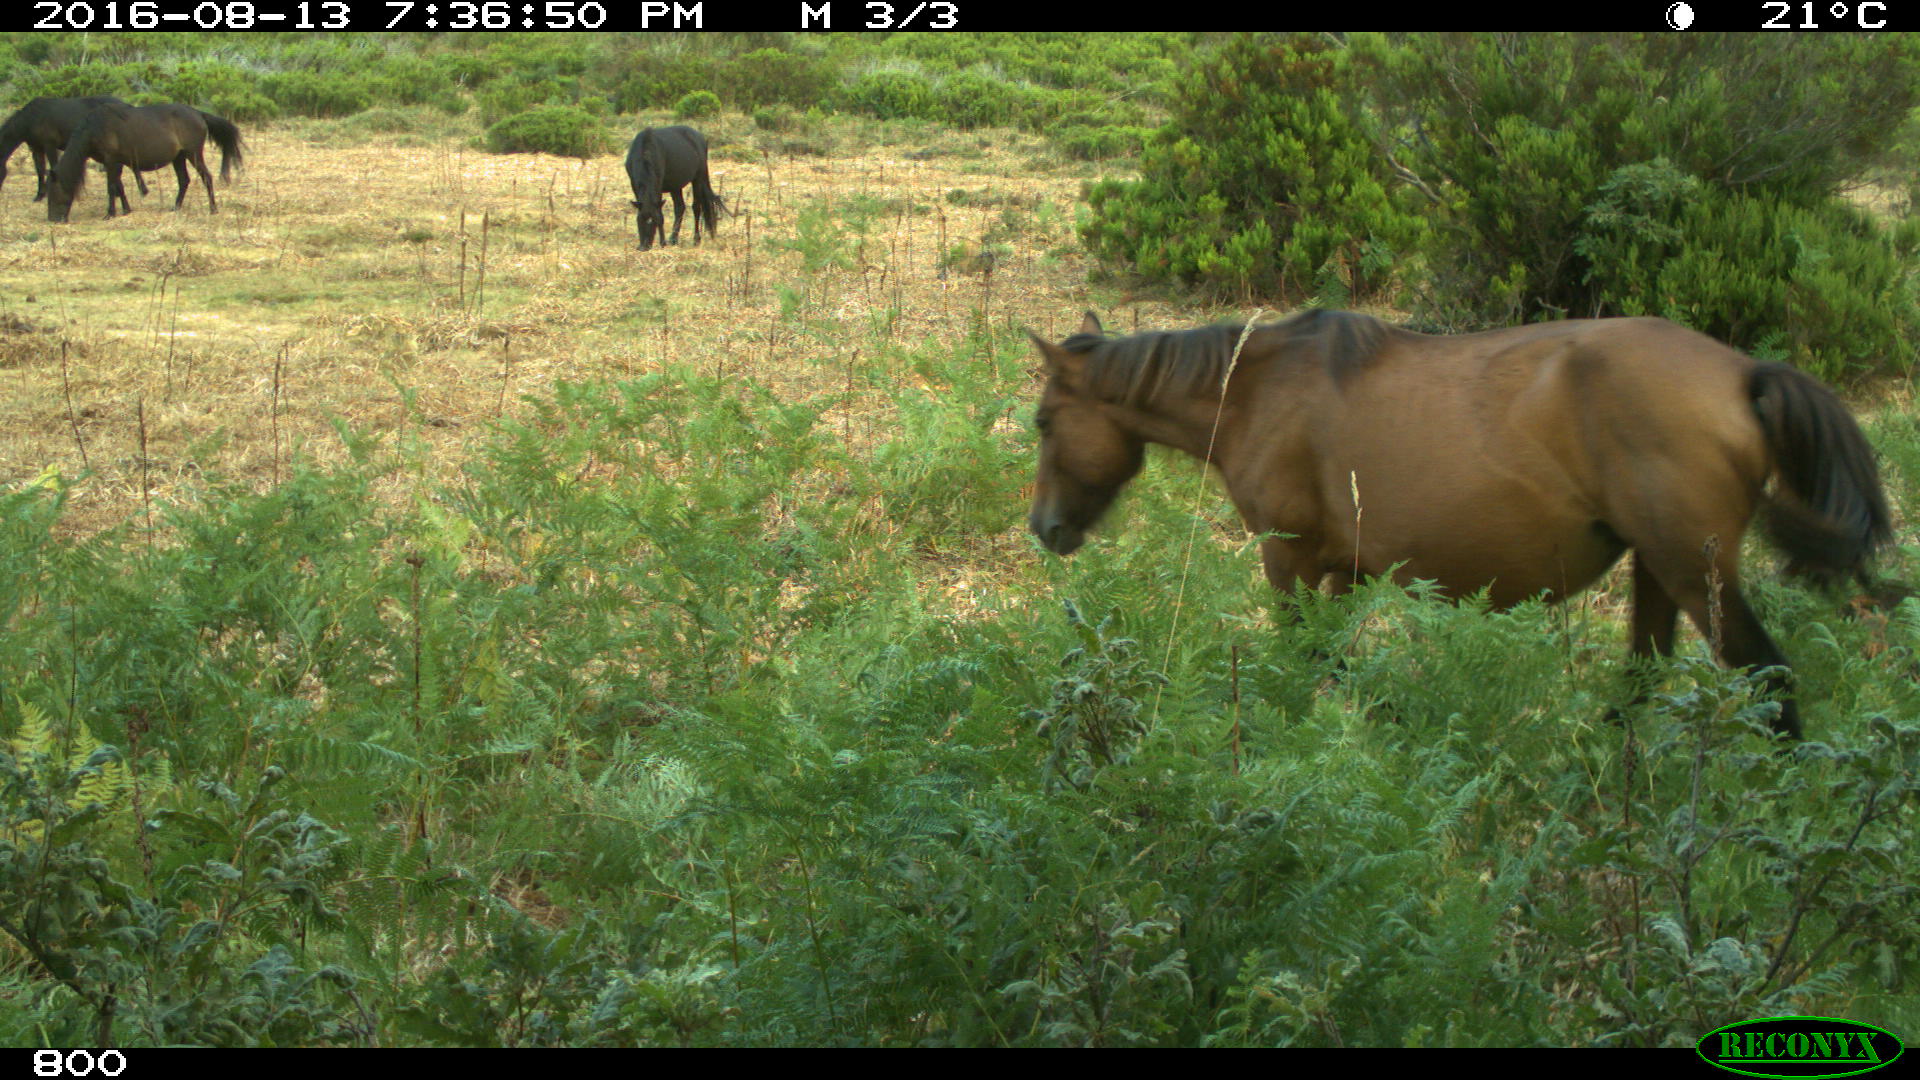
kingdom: Animalia
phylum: Chordata
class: Mammalia
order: Perissodactyla
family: Equidae
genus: Equus
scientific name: Equus caballus
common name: Horse
